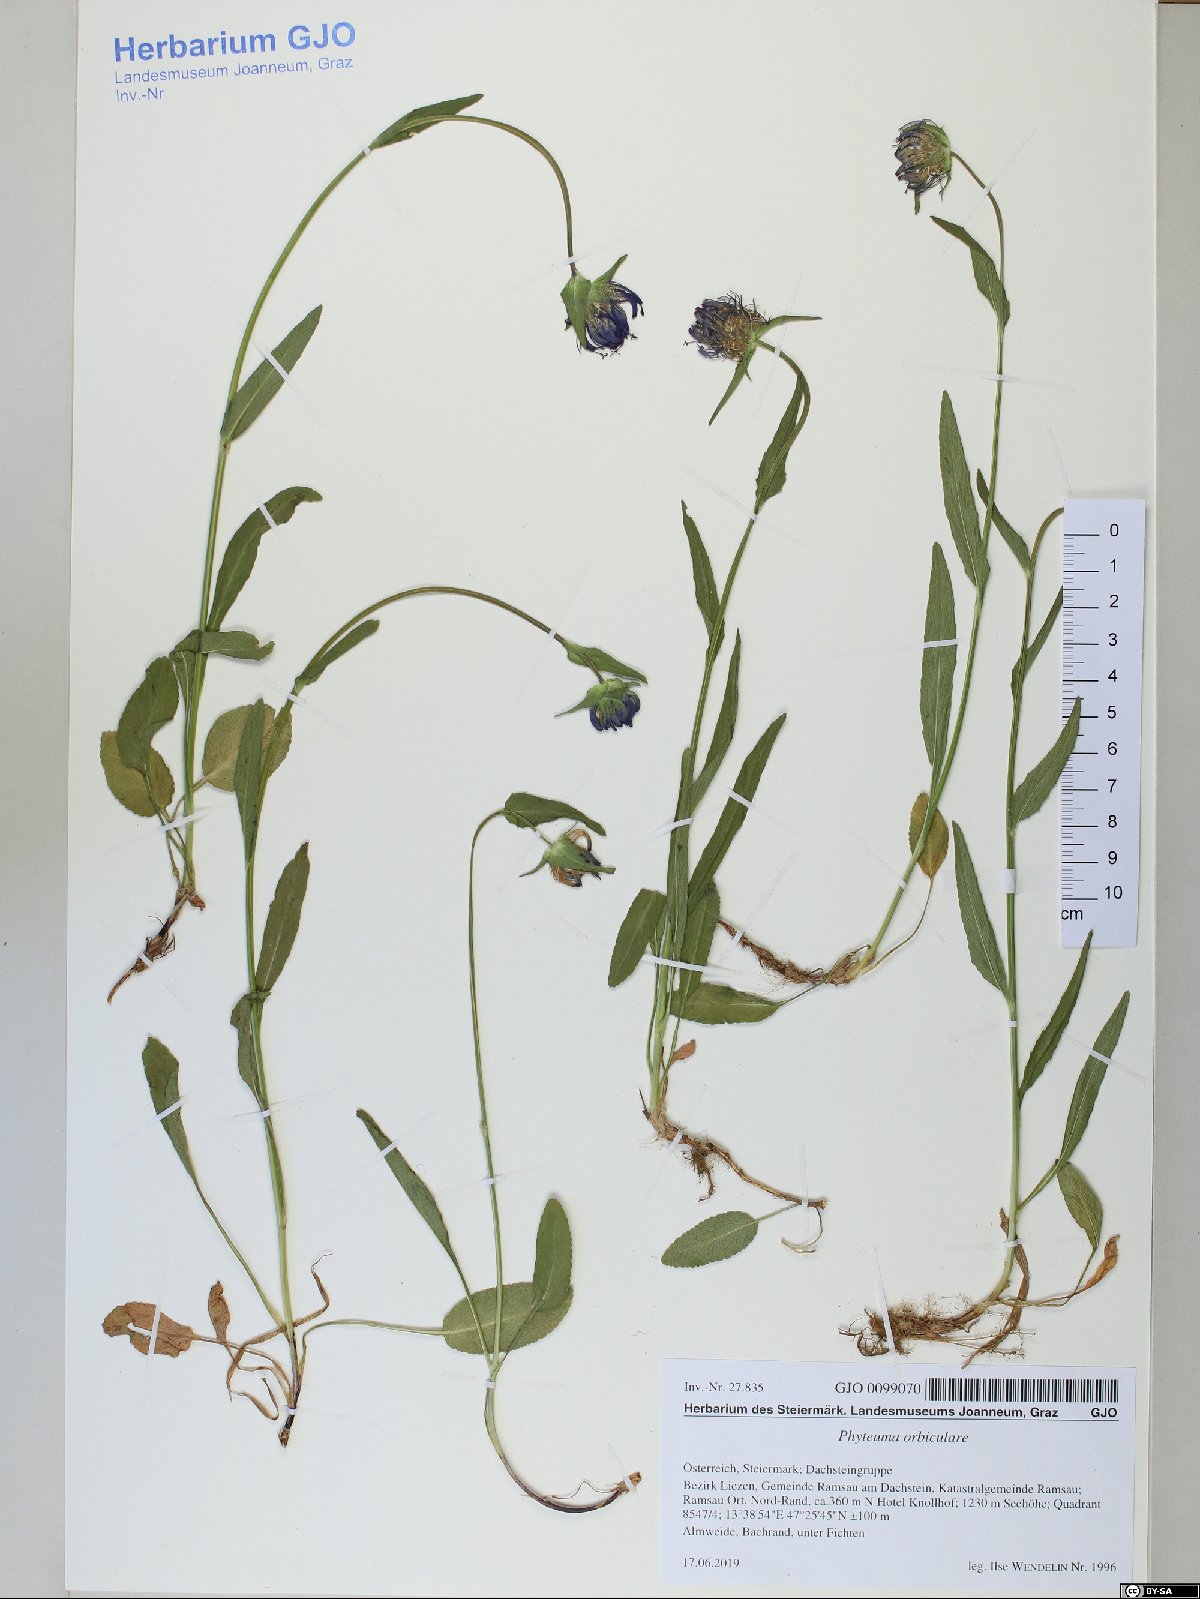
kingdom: Plantae
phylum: Tracheophyta
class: Magnoliopsida
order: Asterales
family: Campanulaceae
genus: Phyteuma
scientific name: Phyteuma orbiculare
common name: Round-headed rampion
